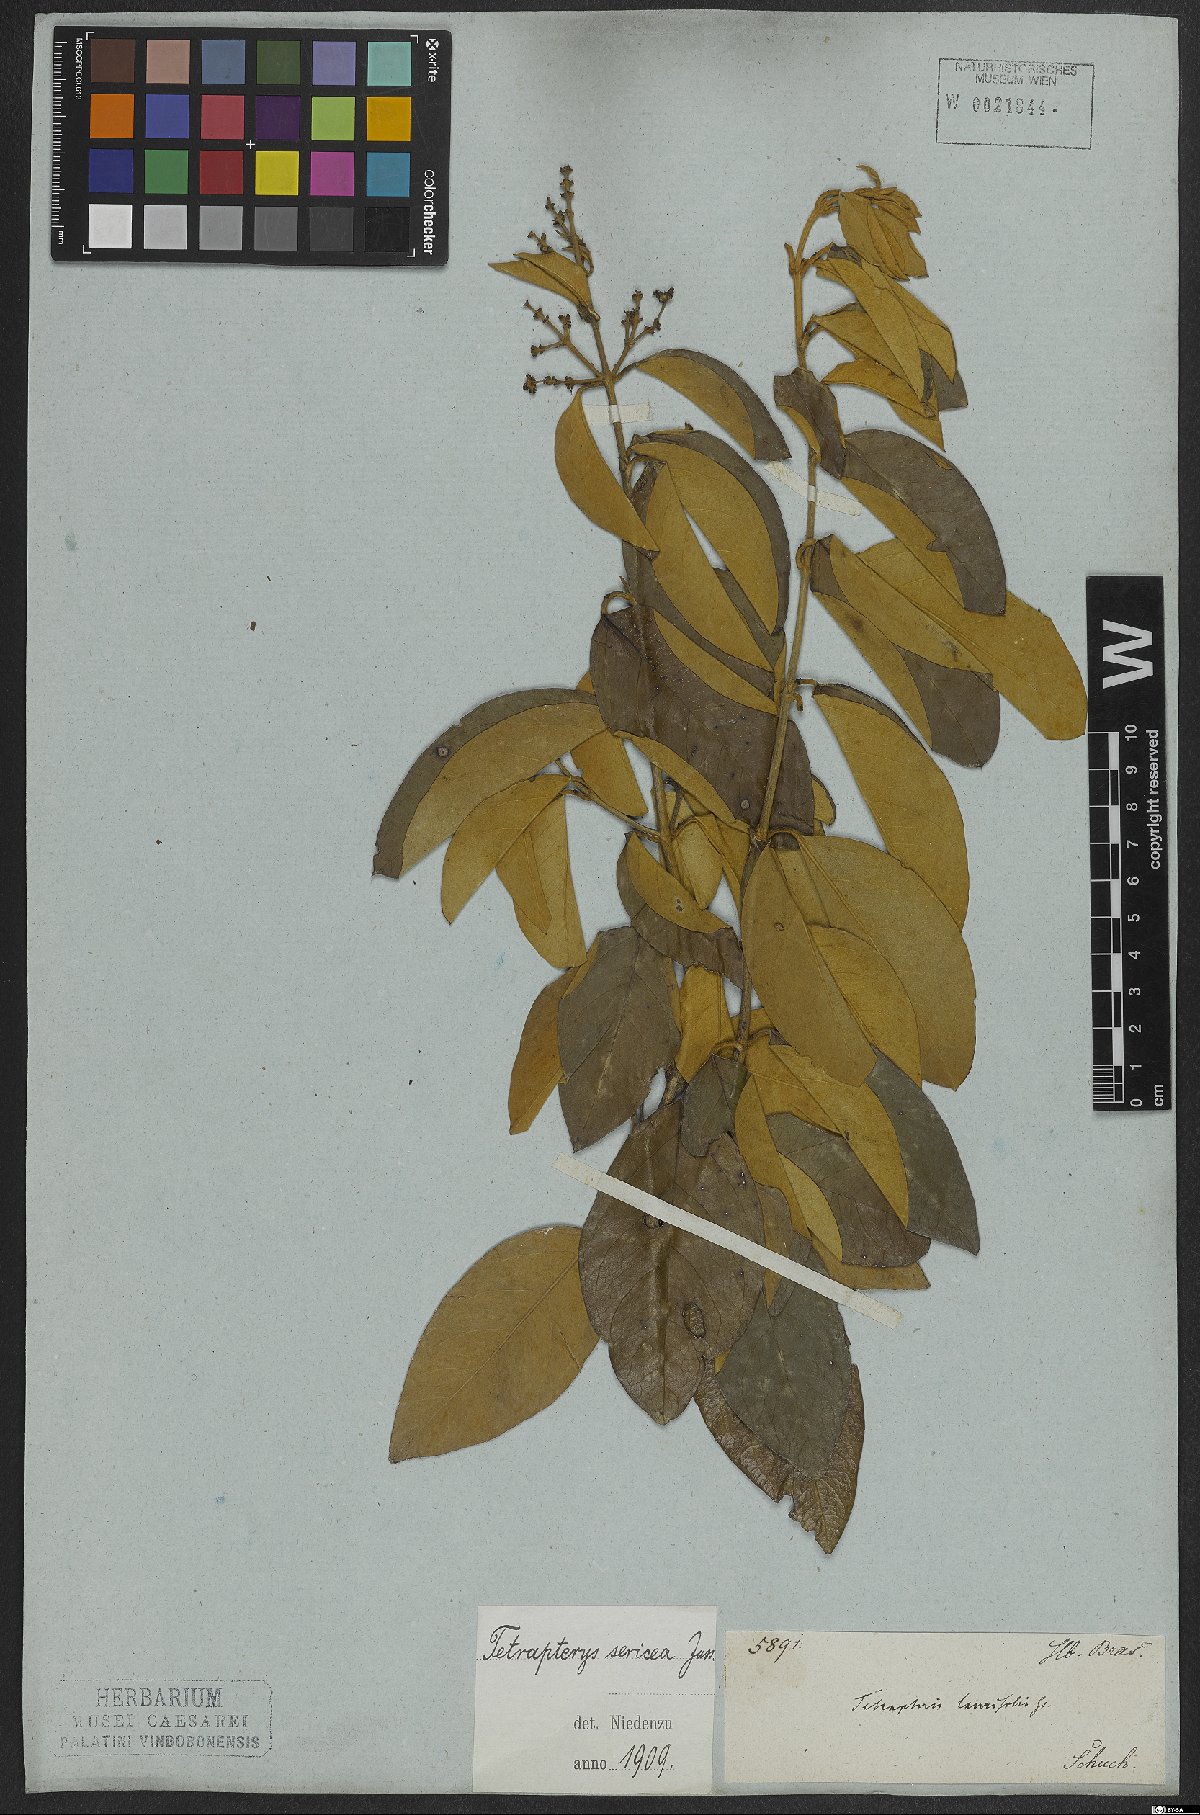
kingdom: Plantae
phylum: Tracheophyta
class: Magnoliopsida
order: Malpighiales
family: Malpighiaceae
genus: Niedenzuella
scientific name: Niedenzuella sericea
